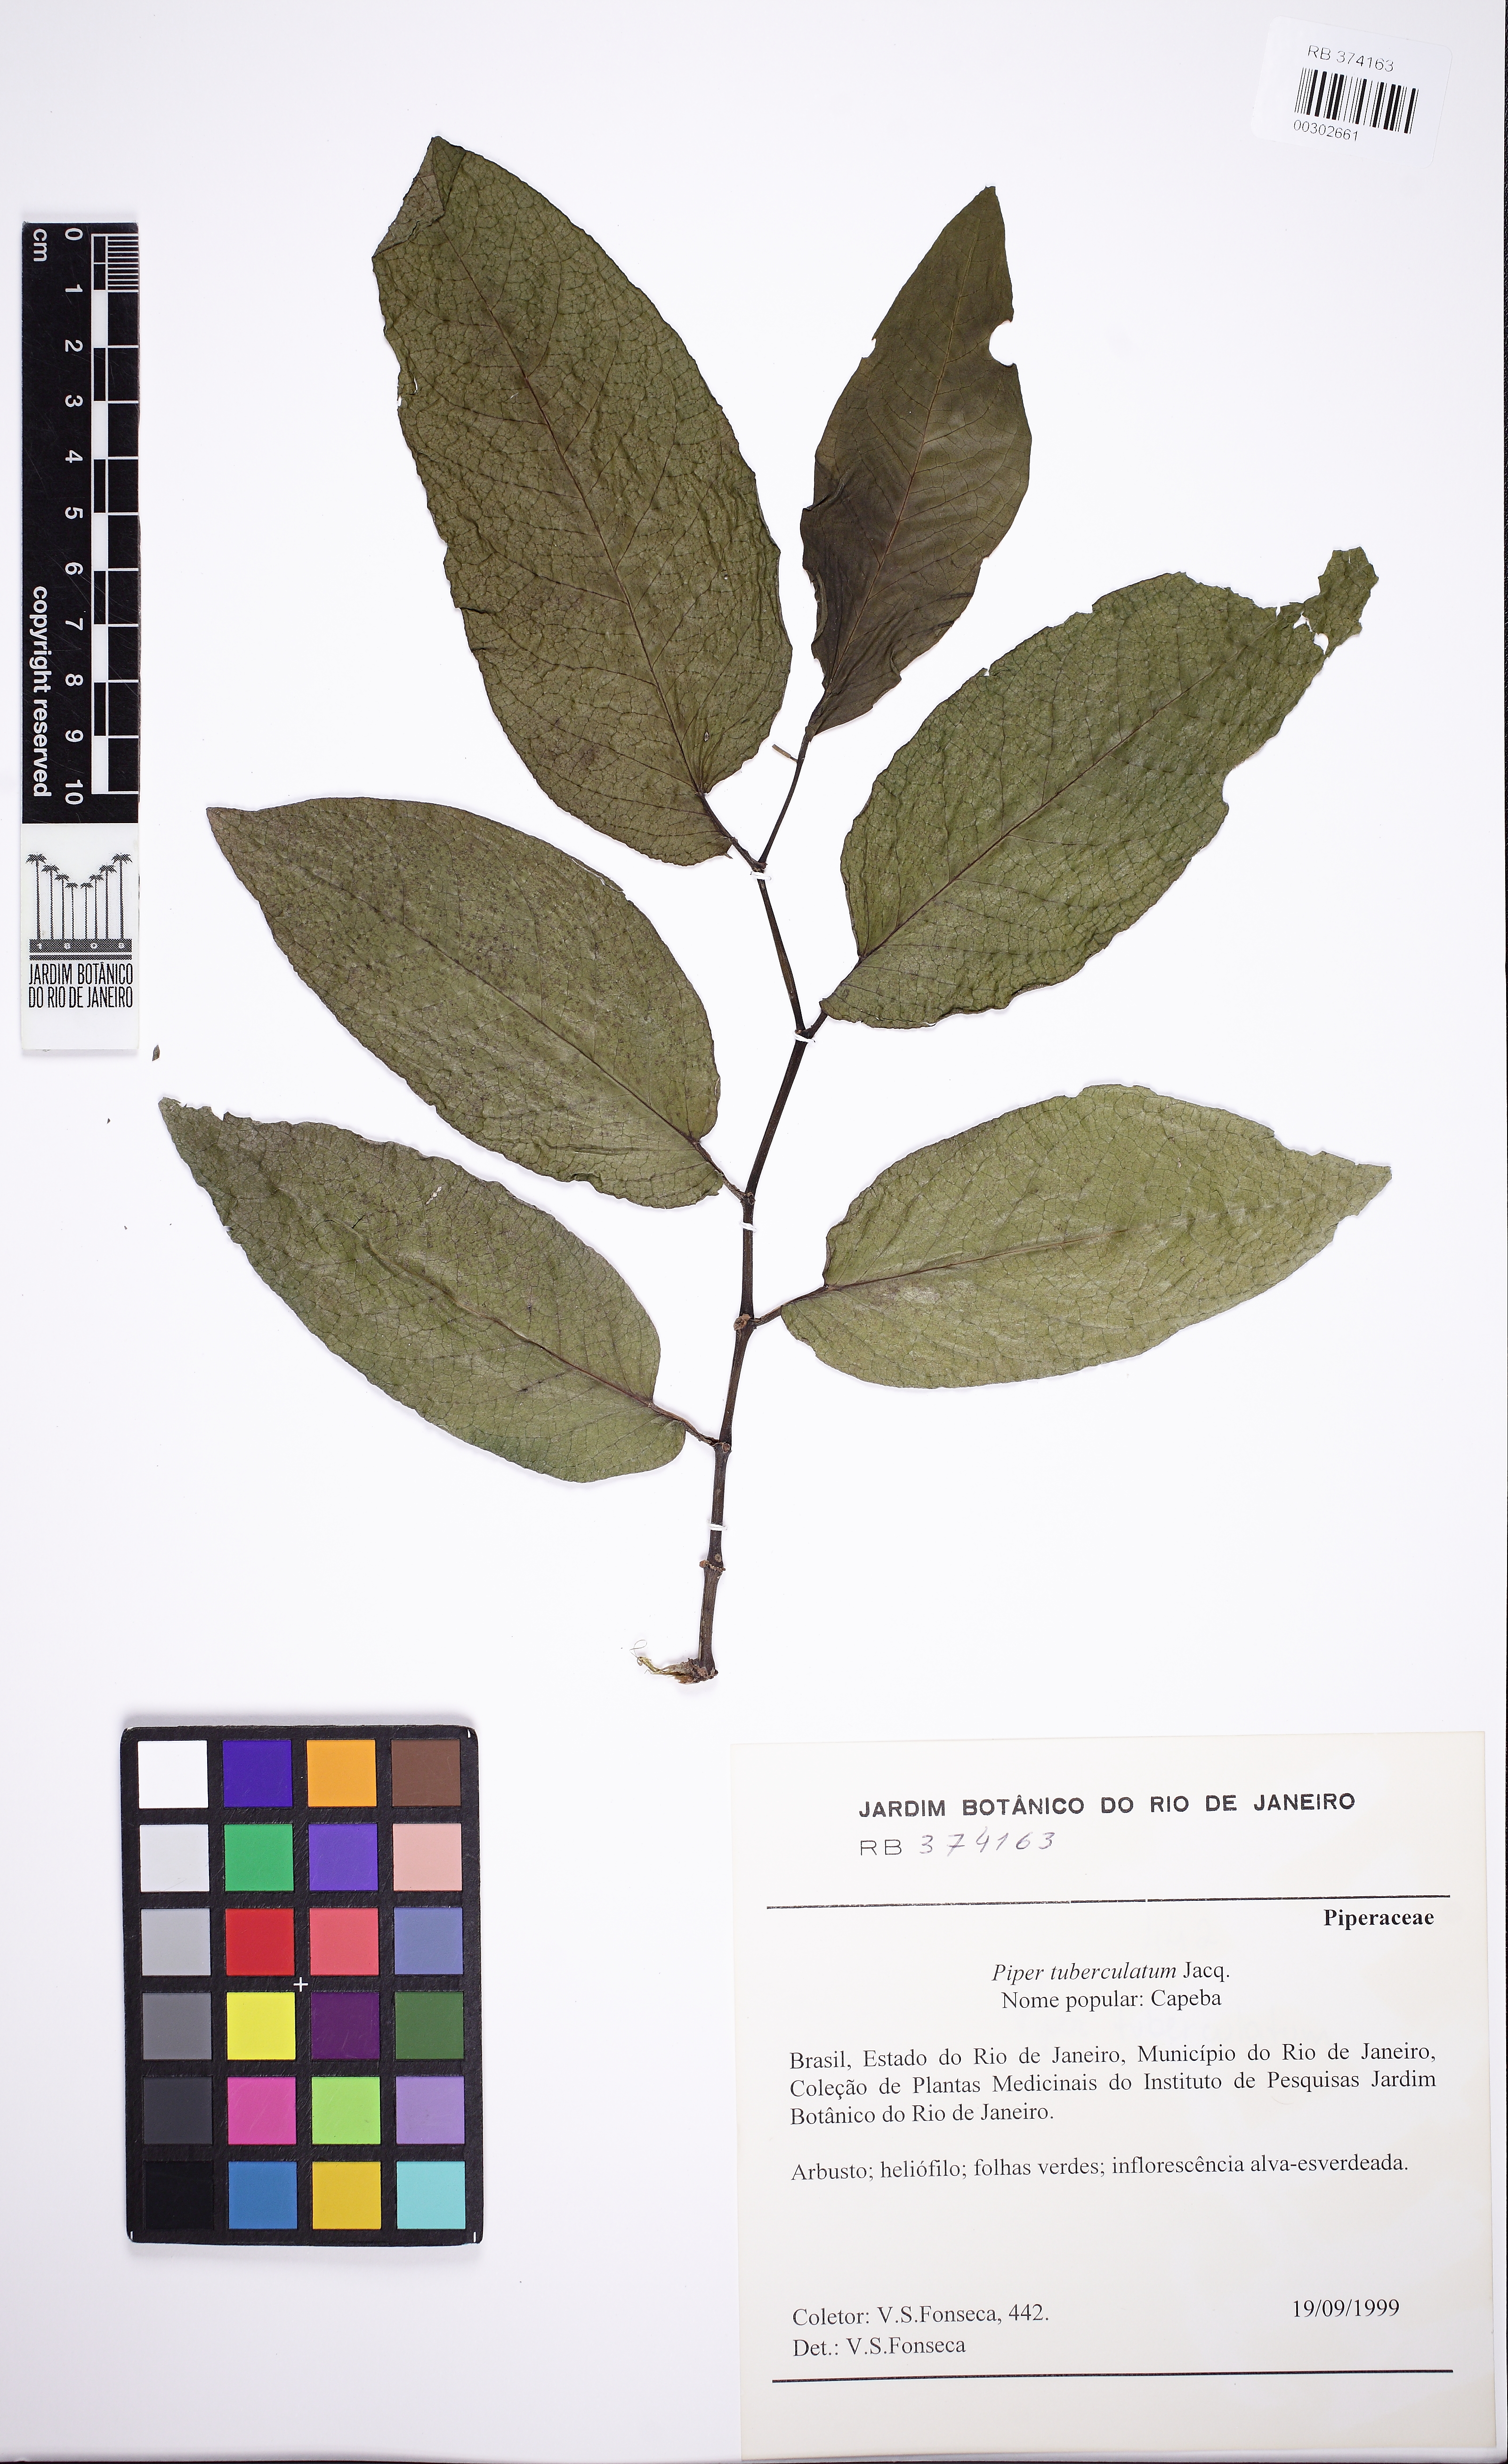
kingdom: Plantae
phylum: Tracheophyta
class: Magnoliopsida
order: Piperales
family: Piperaceae
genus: Piper
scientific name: Piper tuberculatum
